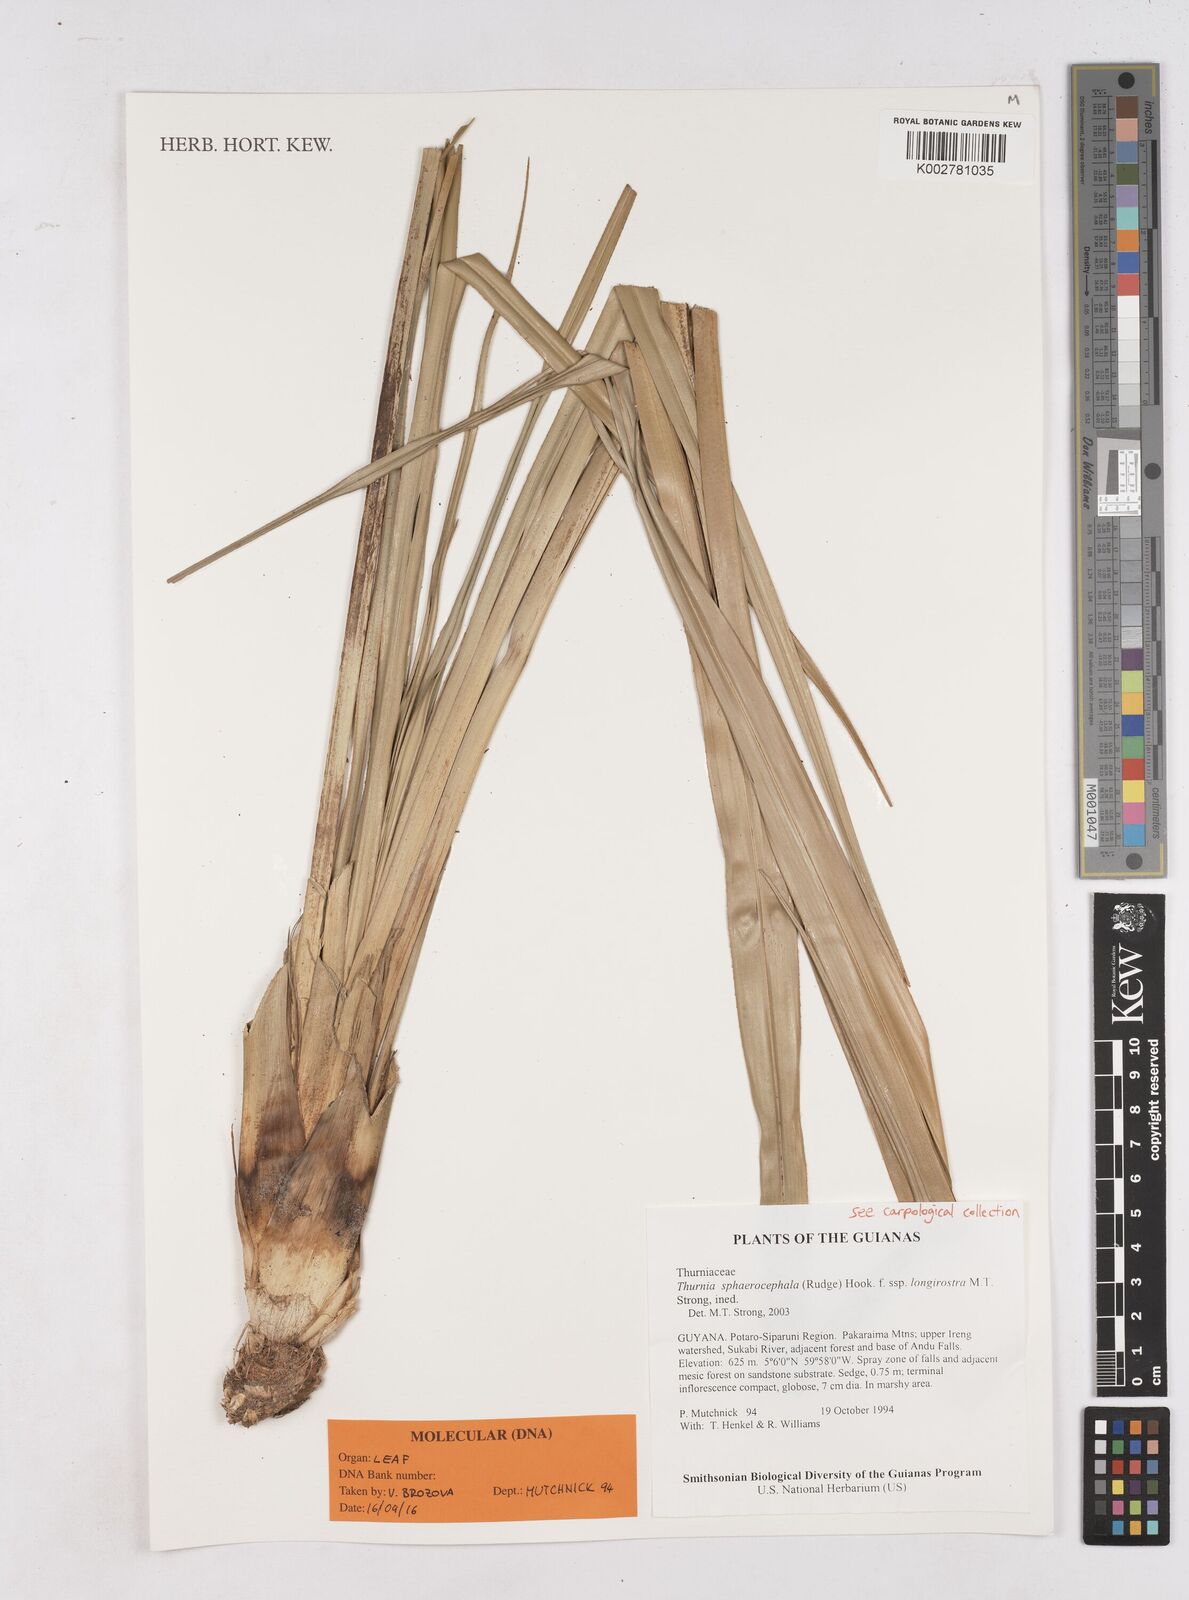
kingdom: Plantae
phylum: Tracheophyta
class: Liliopsida
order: Poales
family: Thurniaceae
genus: Thurnia
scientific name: Thurnia sphaerocephala
